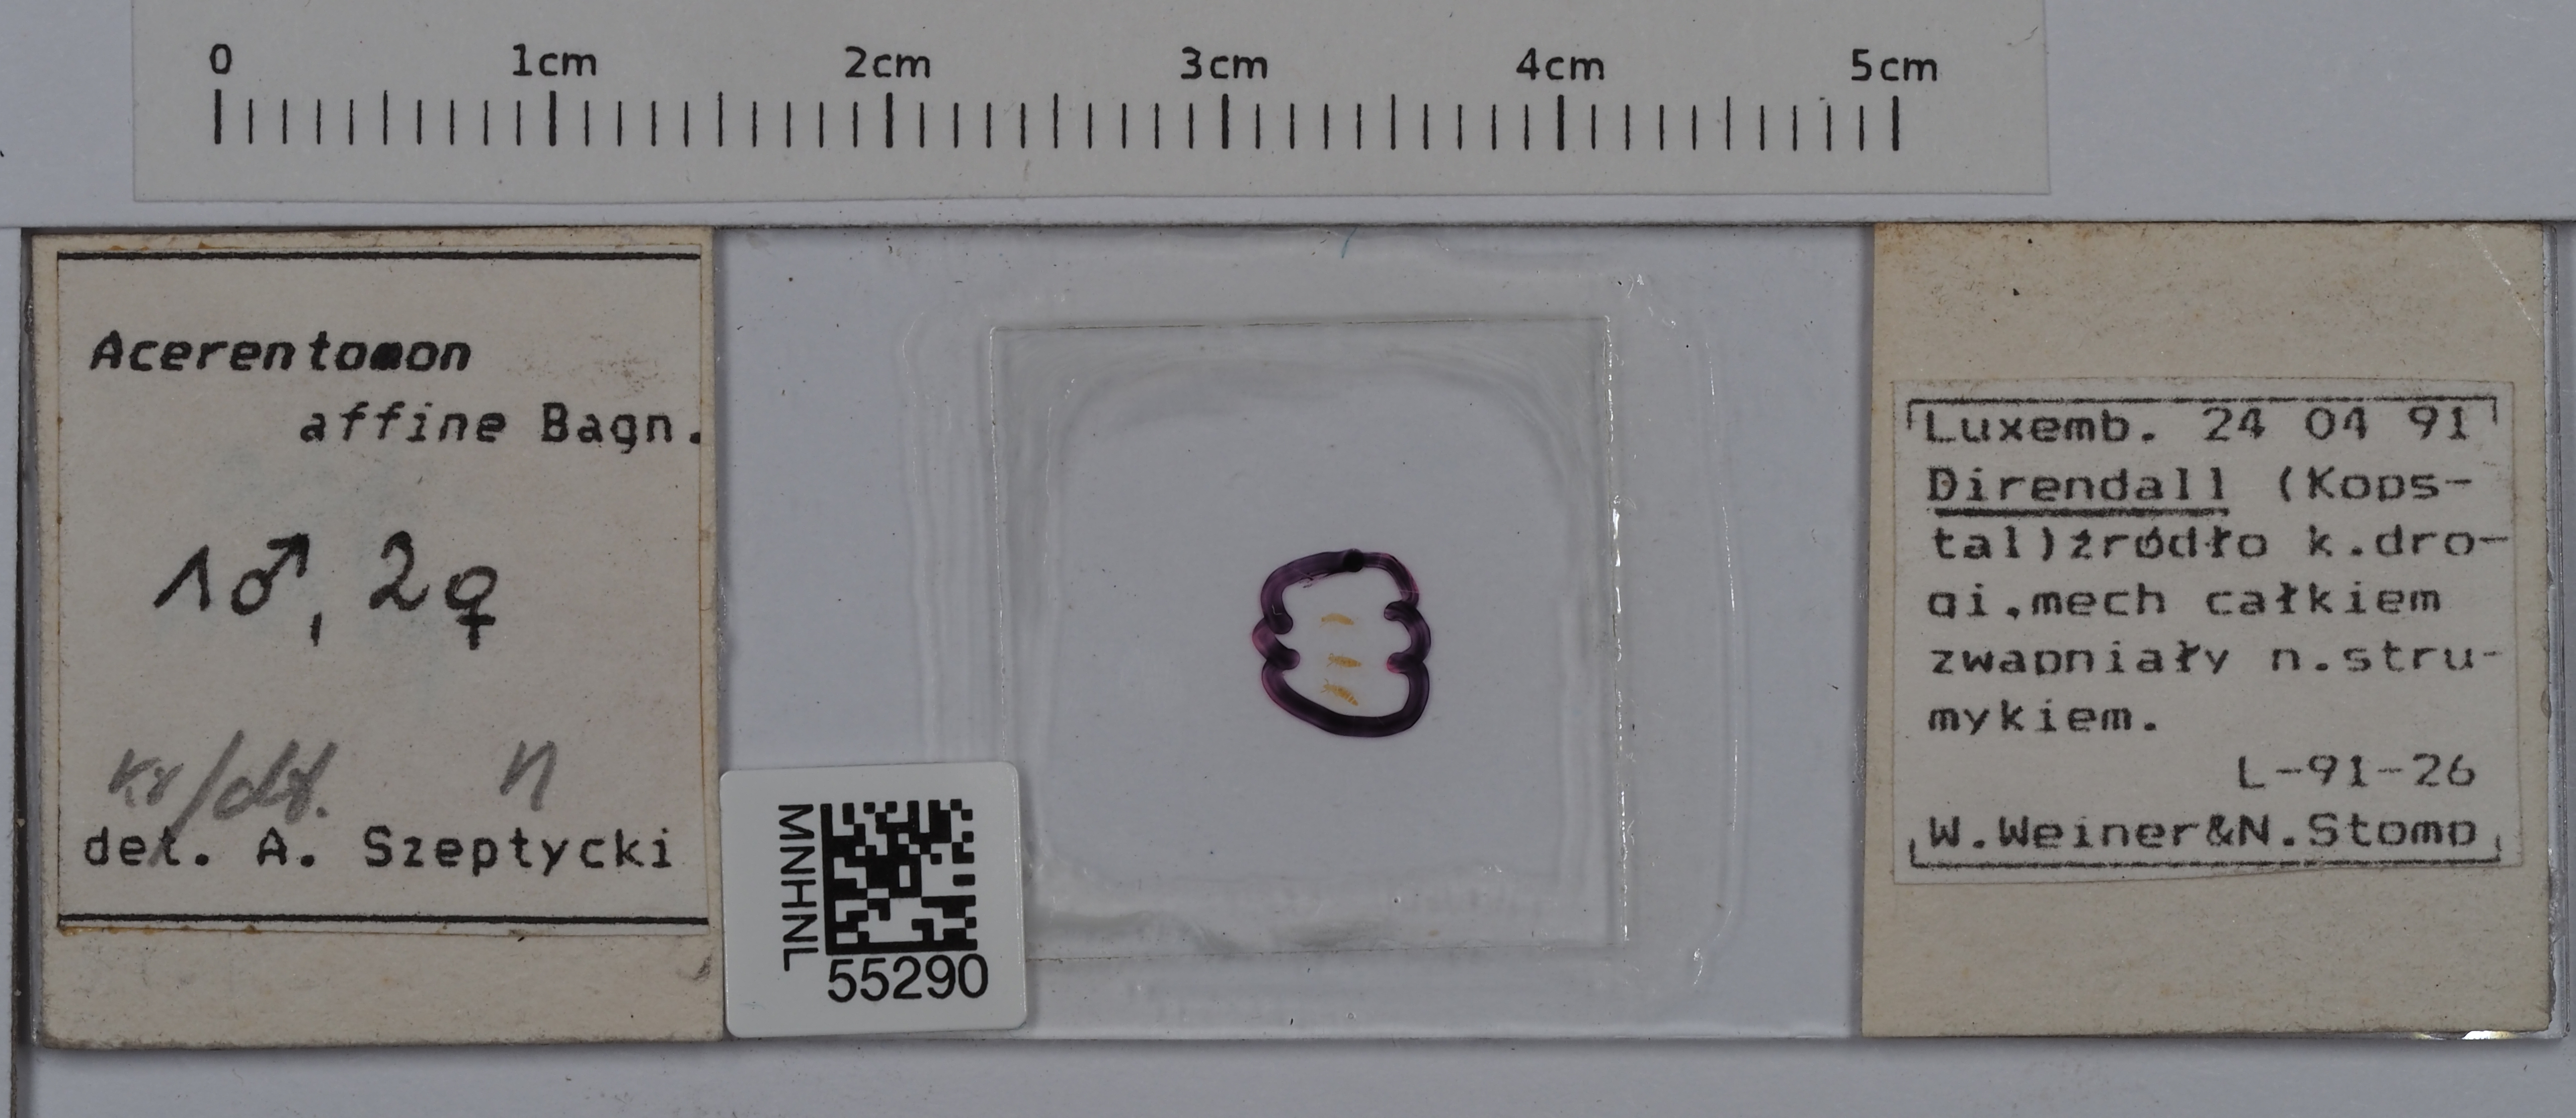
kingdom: Animalia
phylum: Arthropoda
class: Protura
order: Protura
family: Acerentomidae
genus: Acerentomon
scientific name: Acerentomon affine
